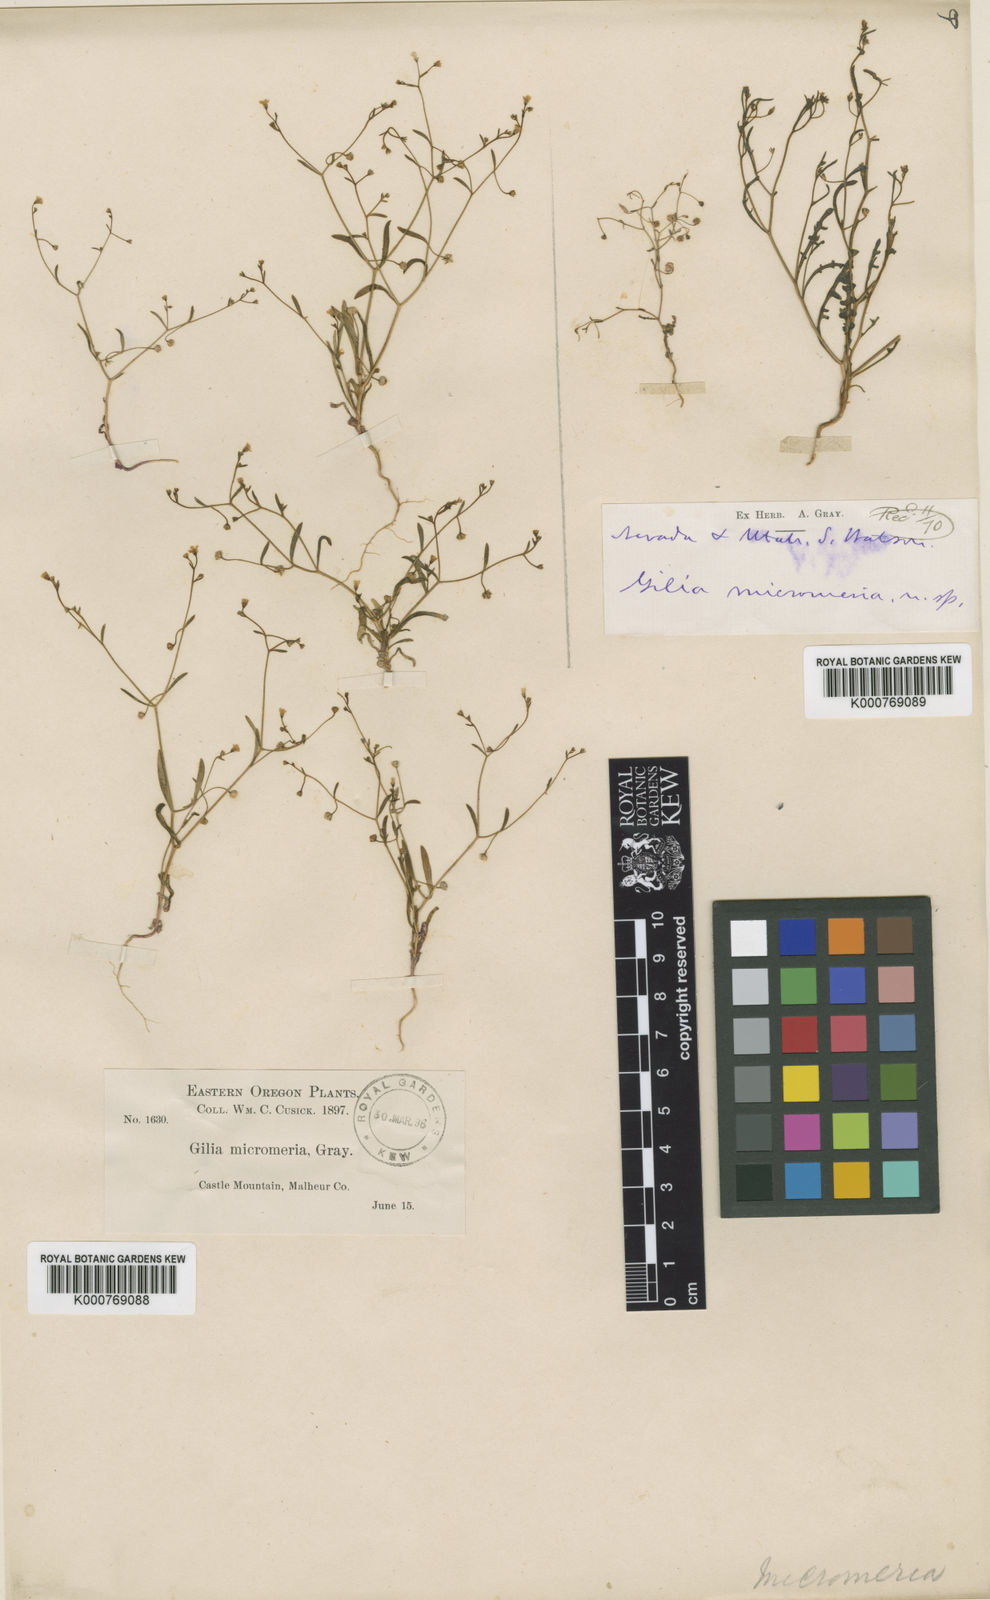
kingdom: Plantae
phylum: Tracheophyta
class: Magnoliopsida
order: Ericales
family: Polemoniaceae
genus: Aliciella
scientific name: Aliciella micromeria
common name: Dainty gilia
